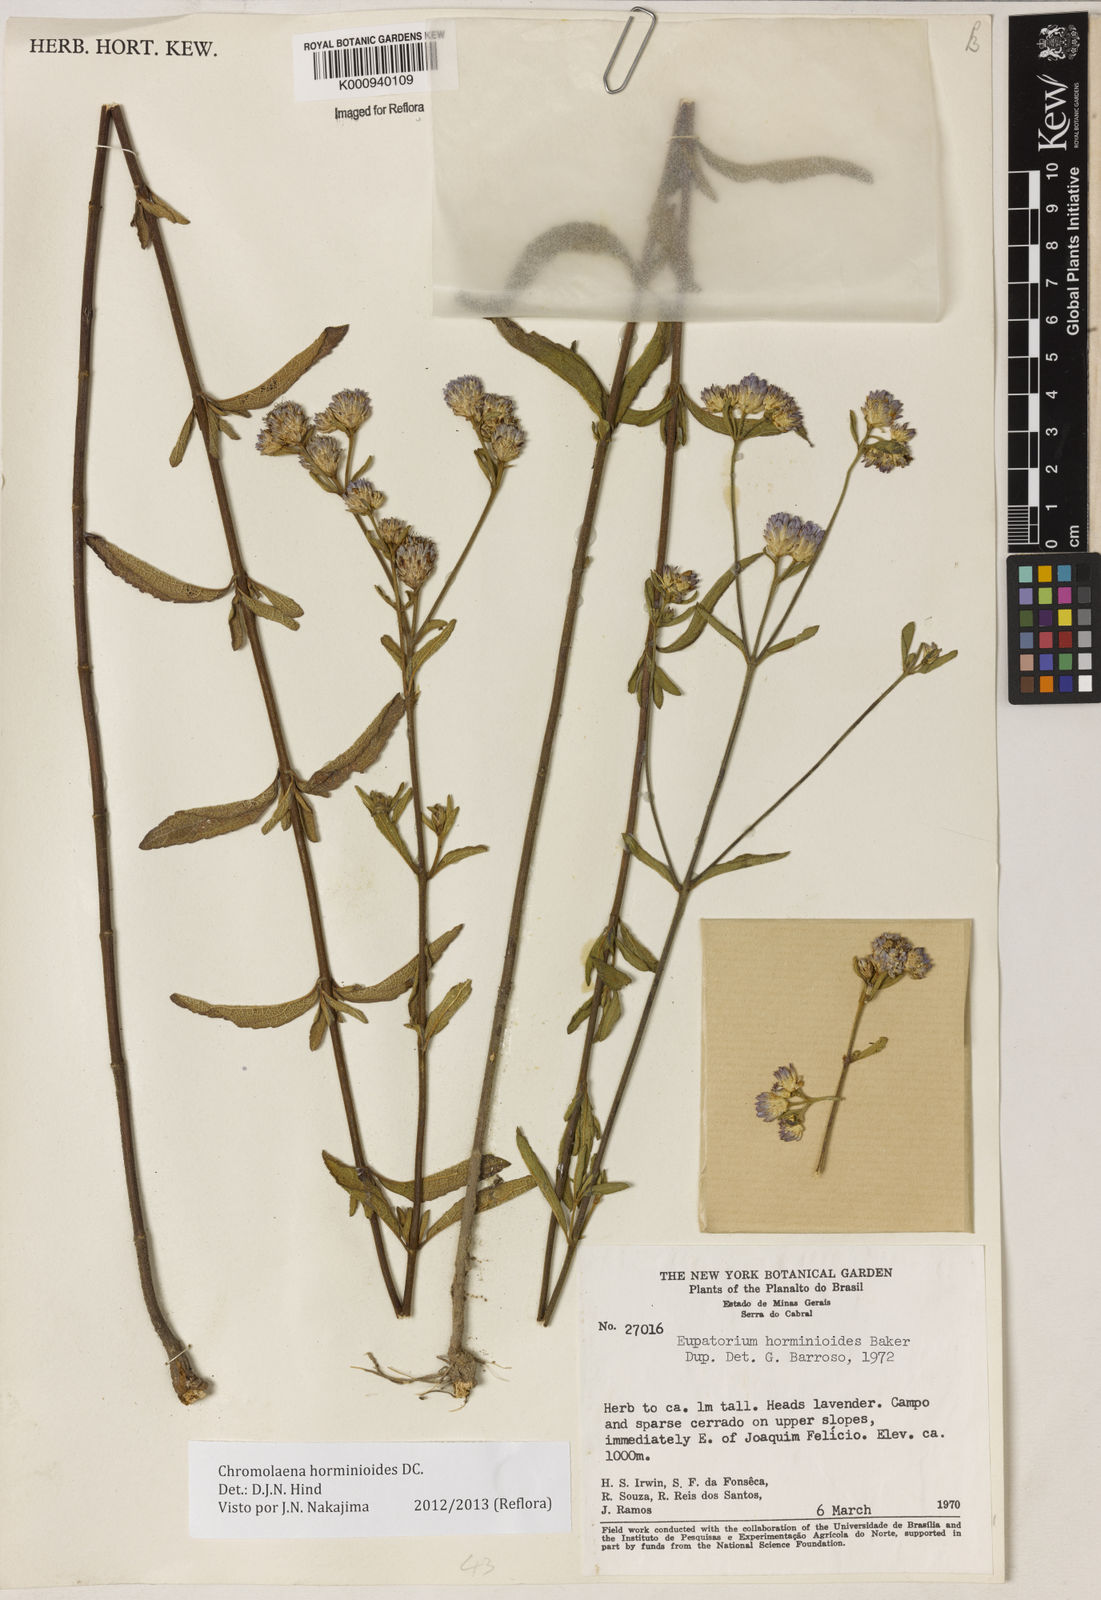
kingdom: Plantae
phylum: Tracheophyta
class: Magnoliopsida
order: Asterales
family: Asteraceae
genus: Chromolaena
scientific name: Chromolaena horminoides
